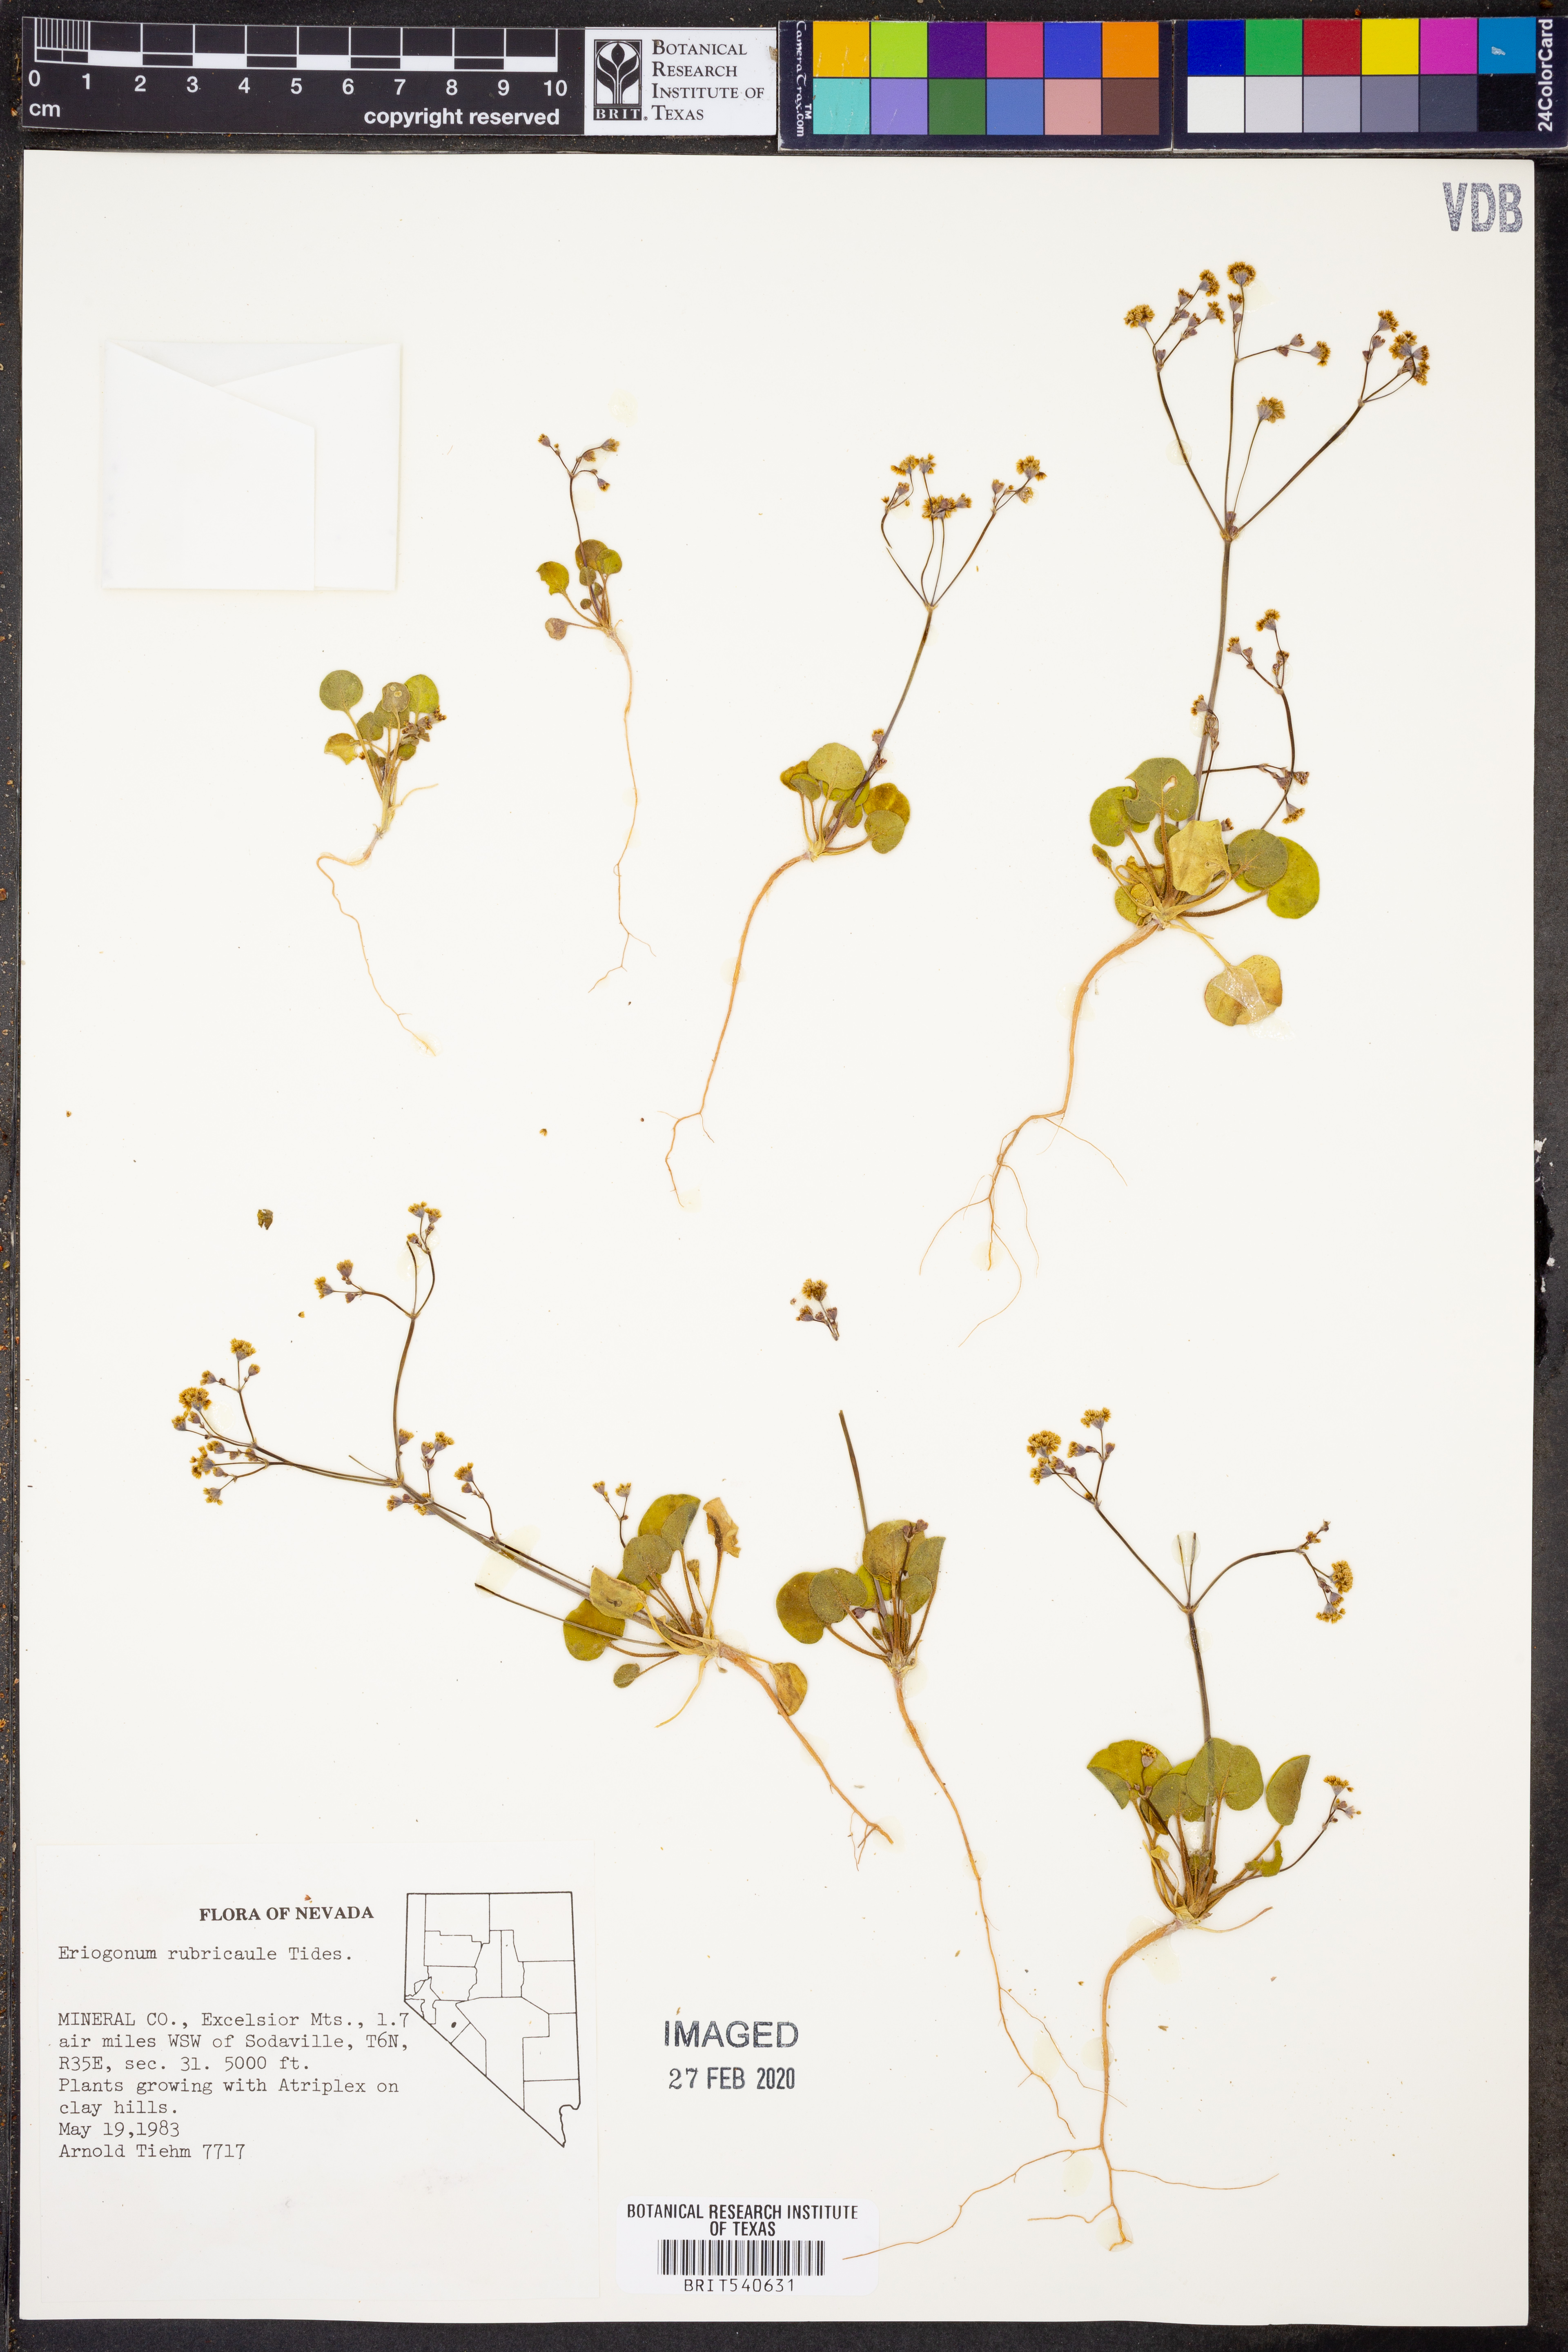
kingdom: Plantae
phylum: Tracheophyta
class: Magnoliopsida
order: Caryophyllales
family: Polygonaceae
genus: Eriogonum
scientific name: Eriogonum rubricaule
